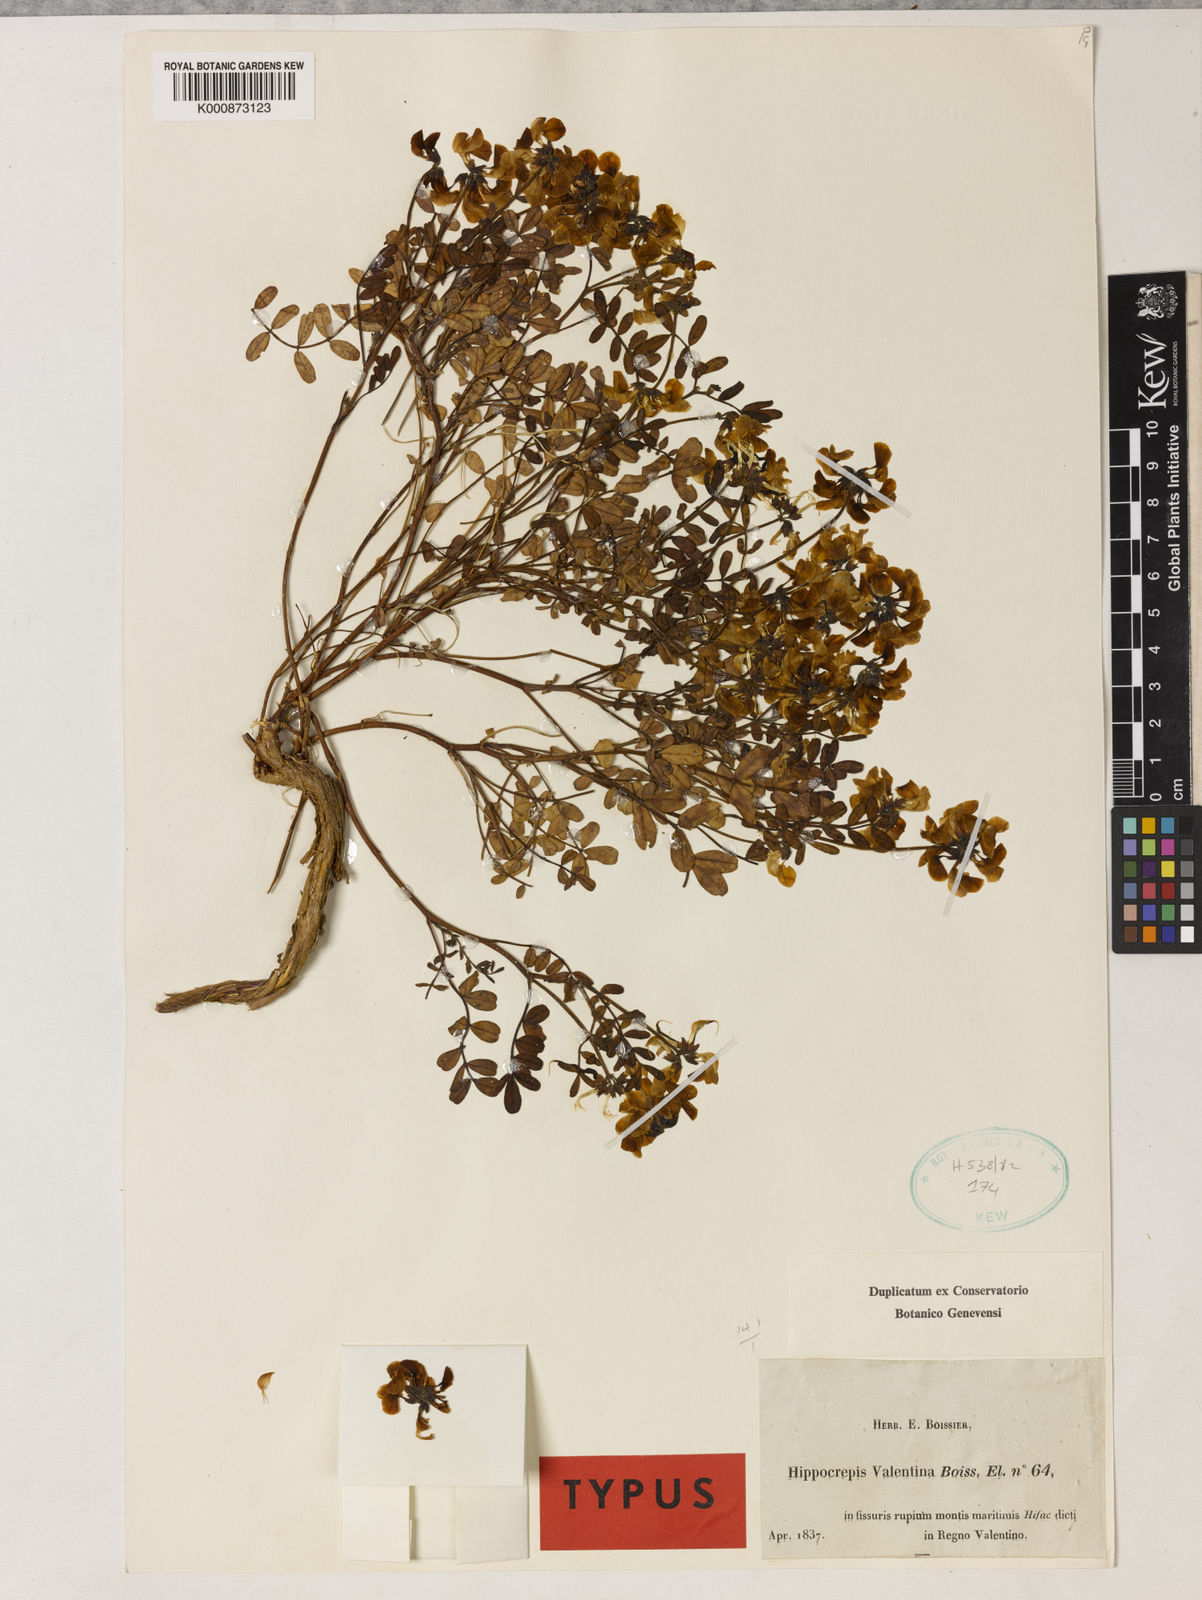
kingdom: Plantae
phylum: Tracheophyta
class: Magnoliopsida
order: Fabales
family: Fabaceae
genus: Hippocrepis
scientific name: Hippocrepis valentina
